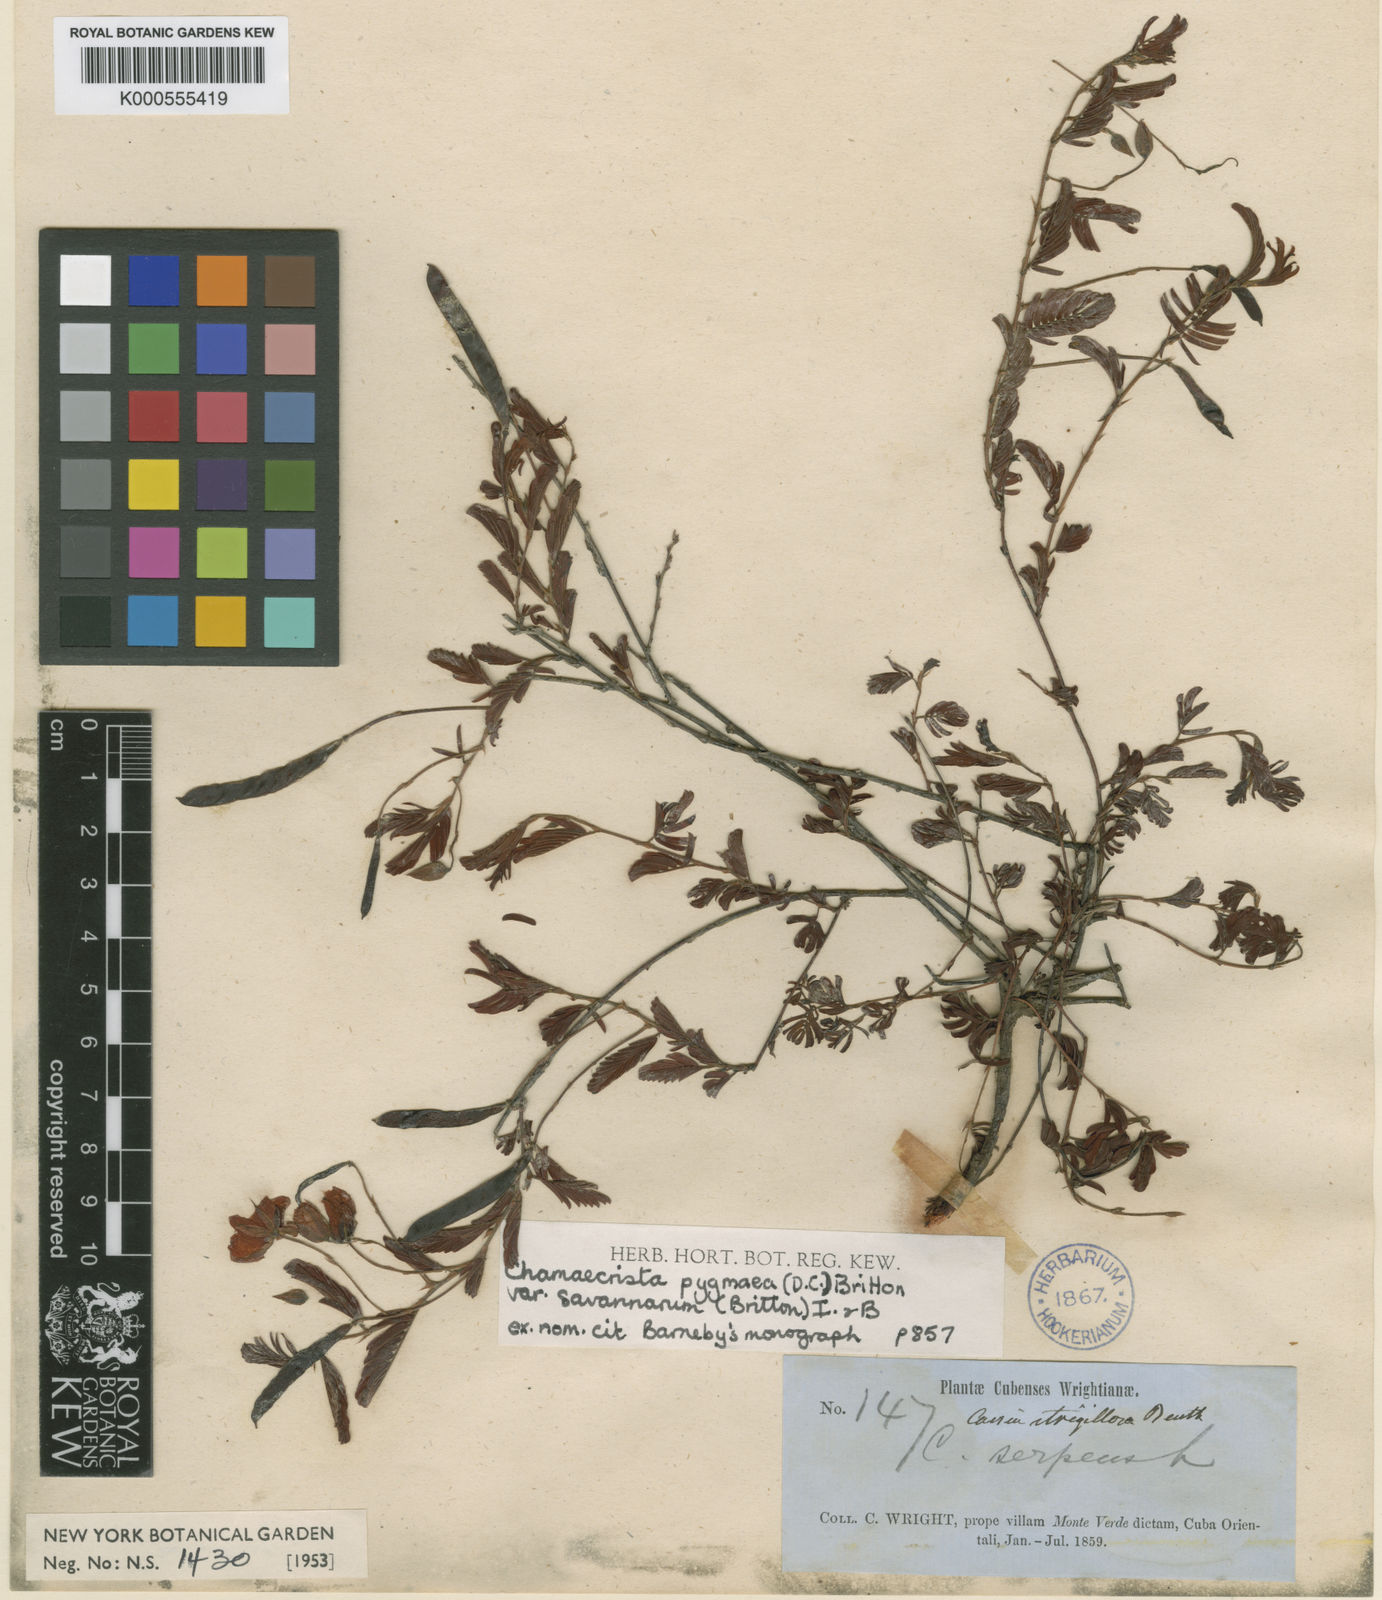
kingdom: Plantae
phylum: Tracheophyta
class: Magnoliopsida
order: Fabales
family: Fabaceae
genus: Chamaecrista
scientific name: Chamaecrista pygmaea
